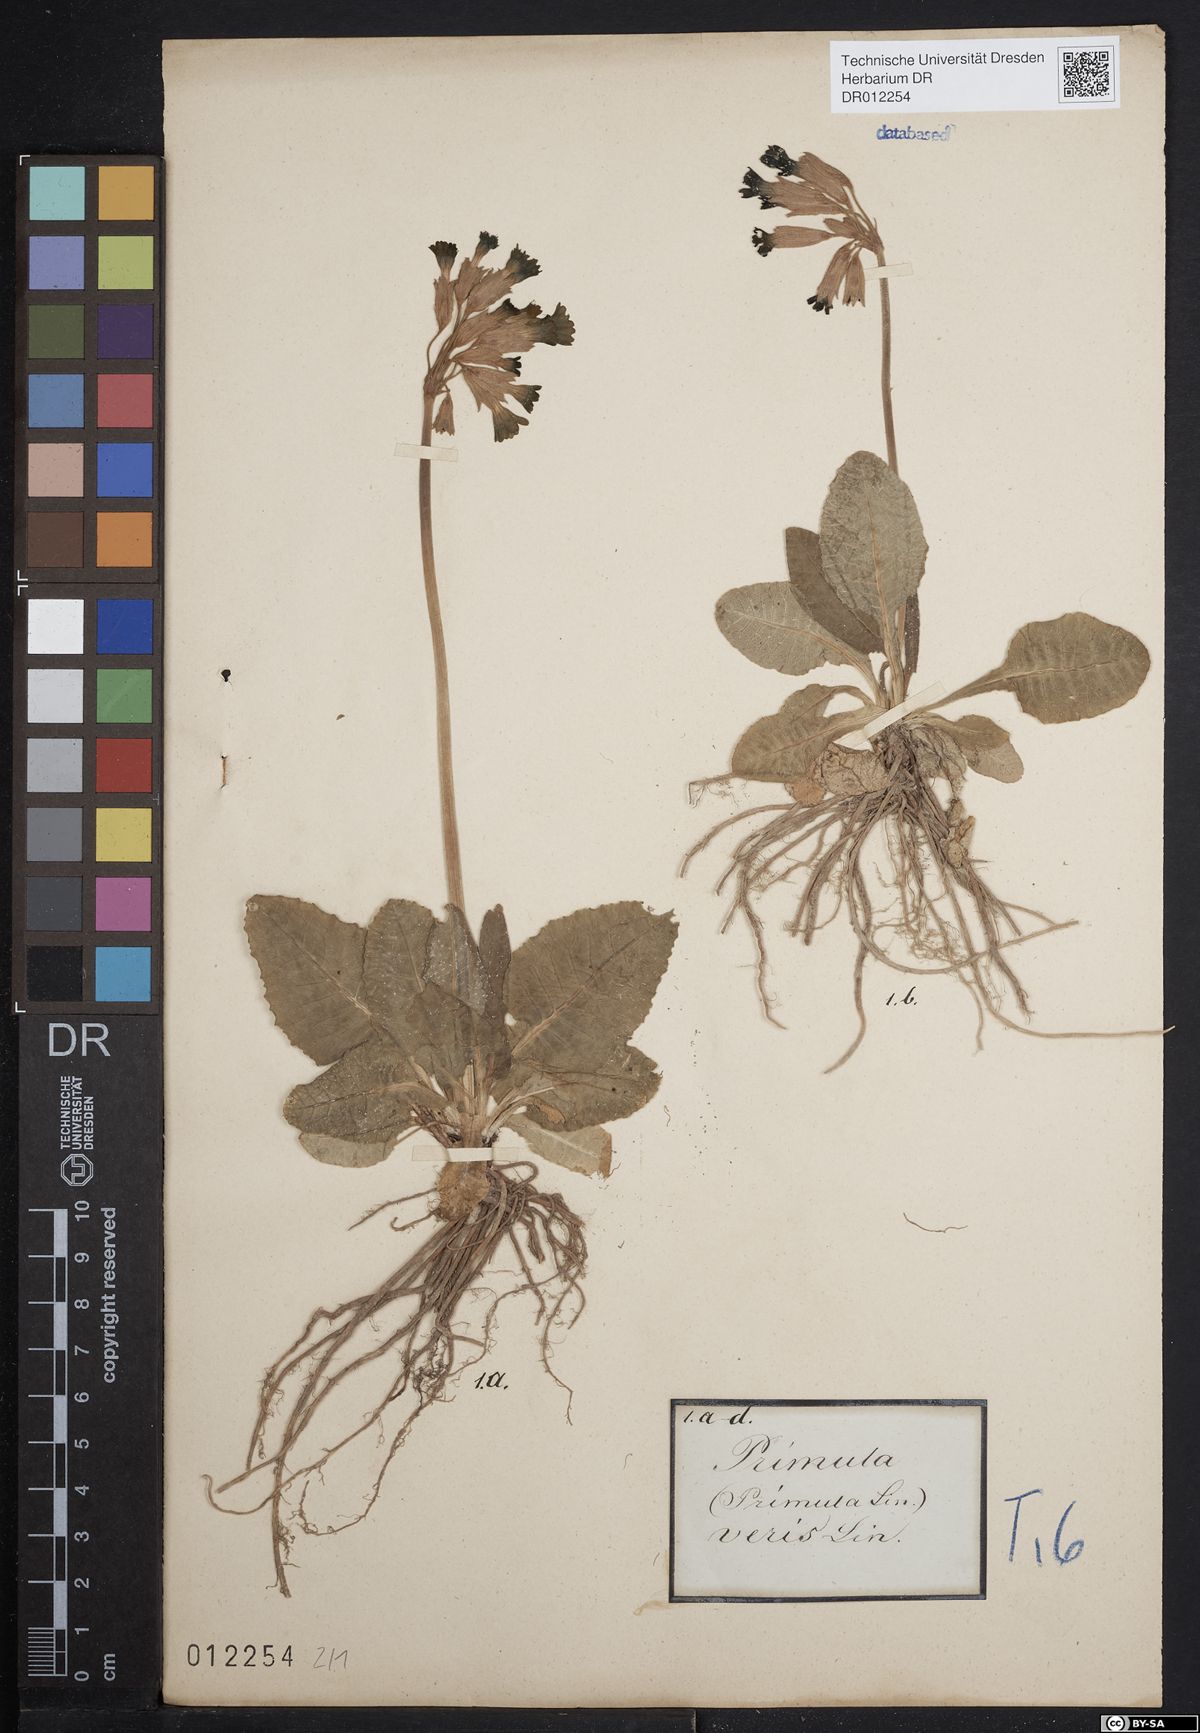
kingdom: Plantae
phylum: Tracheophyta
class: Magnoliopsida
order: Ericales
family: Primulaceae
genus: Primula
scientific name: Primula veris
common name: Cowslip
